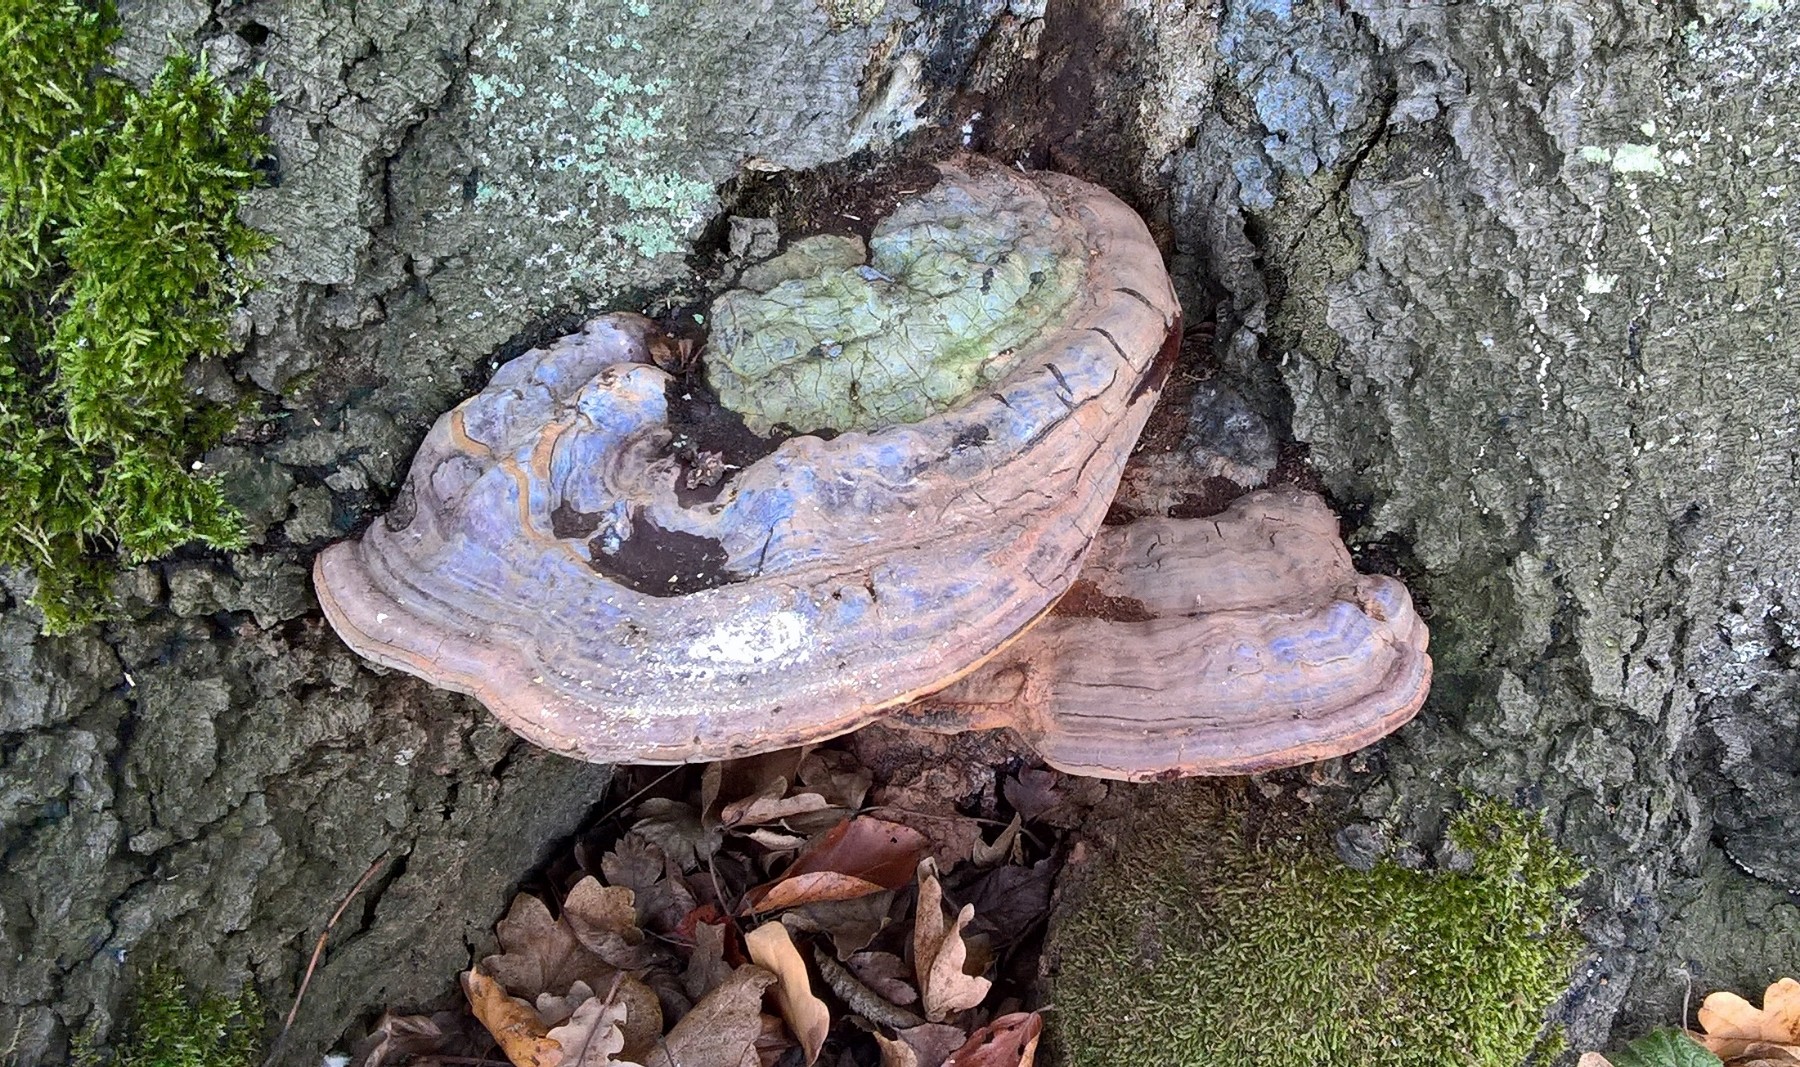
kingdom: Fungi
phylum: Basidiomycota
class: Agaricomycetes
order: Polyporales
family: Polyporaceae
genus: Ganoderma
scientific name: Ganoderma pfeifferi
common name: kobberrød lakporesvamp
